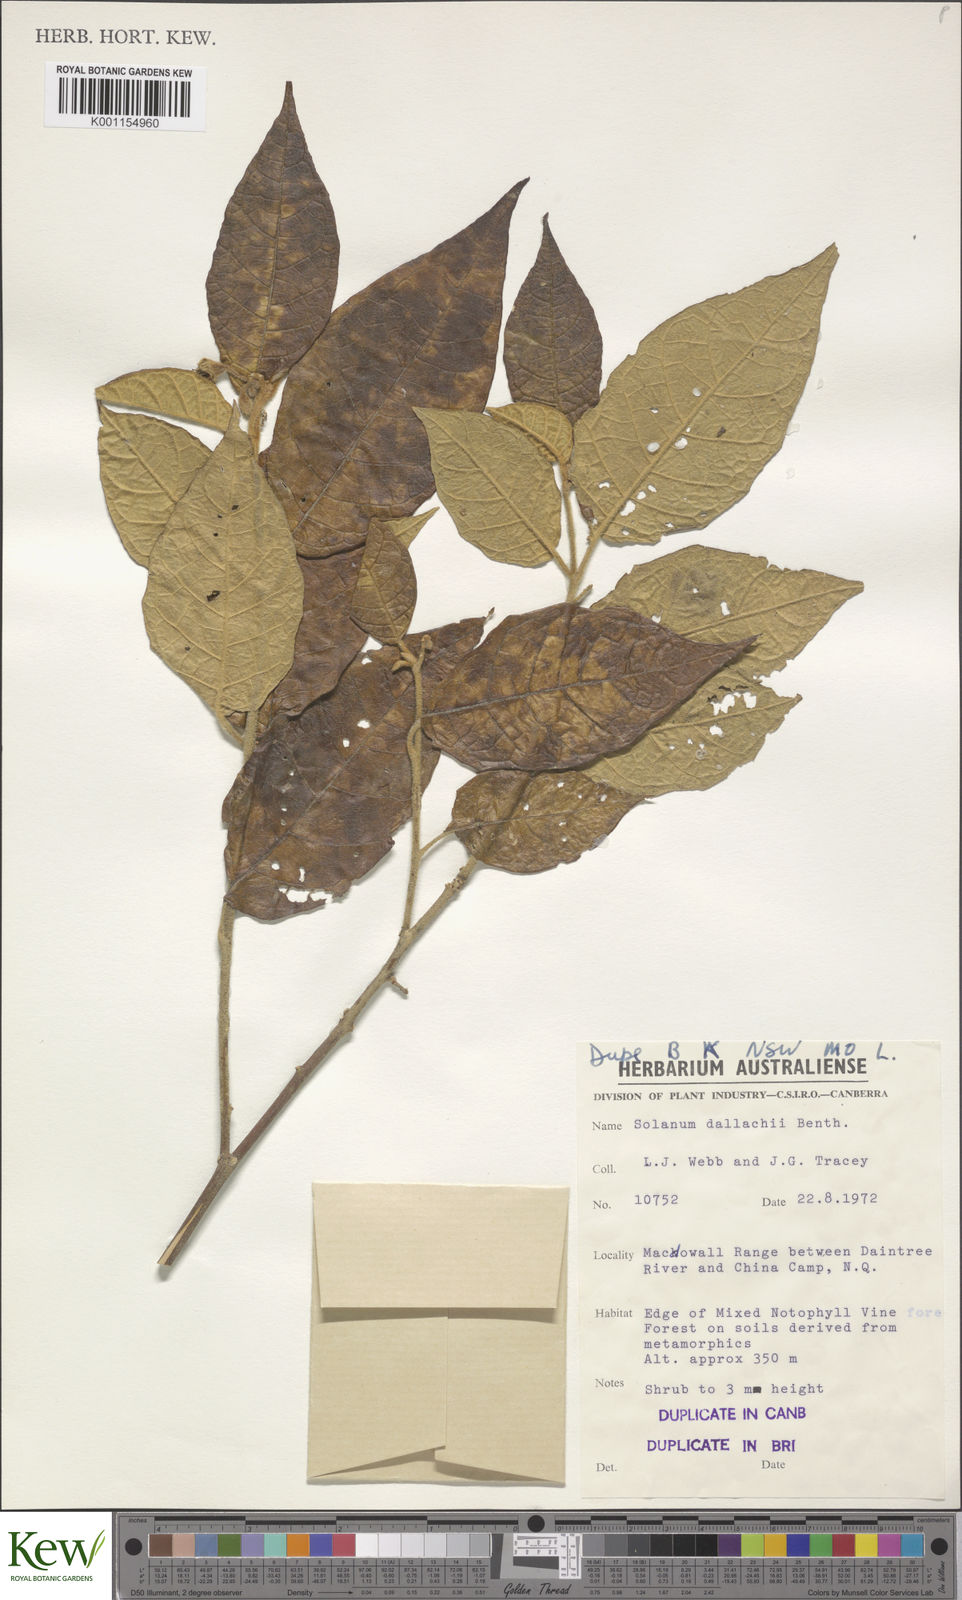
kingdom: Plantae
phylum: Tracheophyta
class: Magnoliopsida
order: Solanales
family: Solanaceae
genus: Solanum
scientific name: Solanum magnifolium
